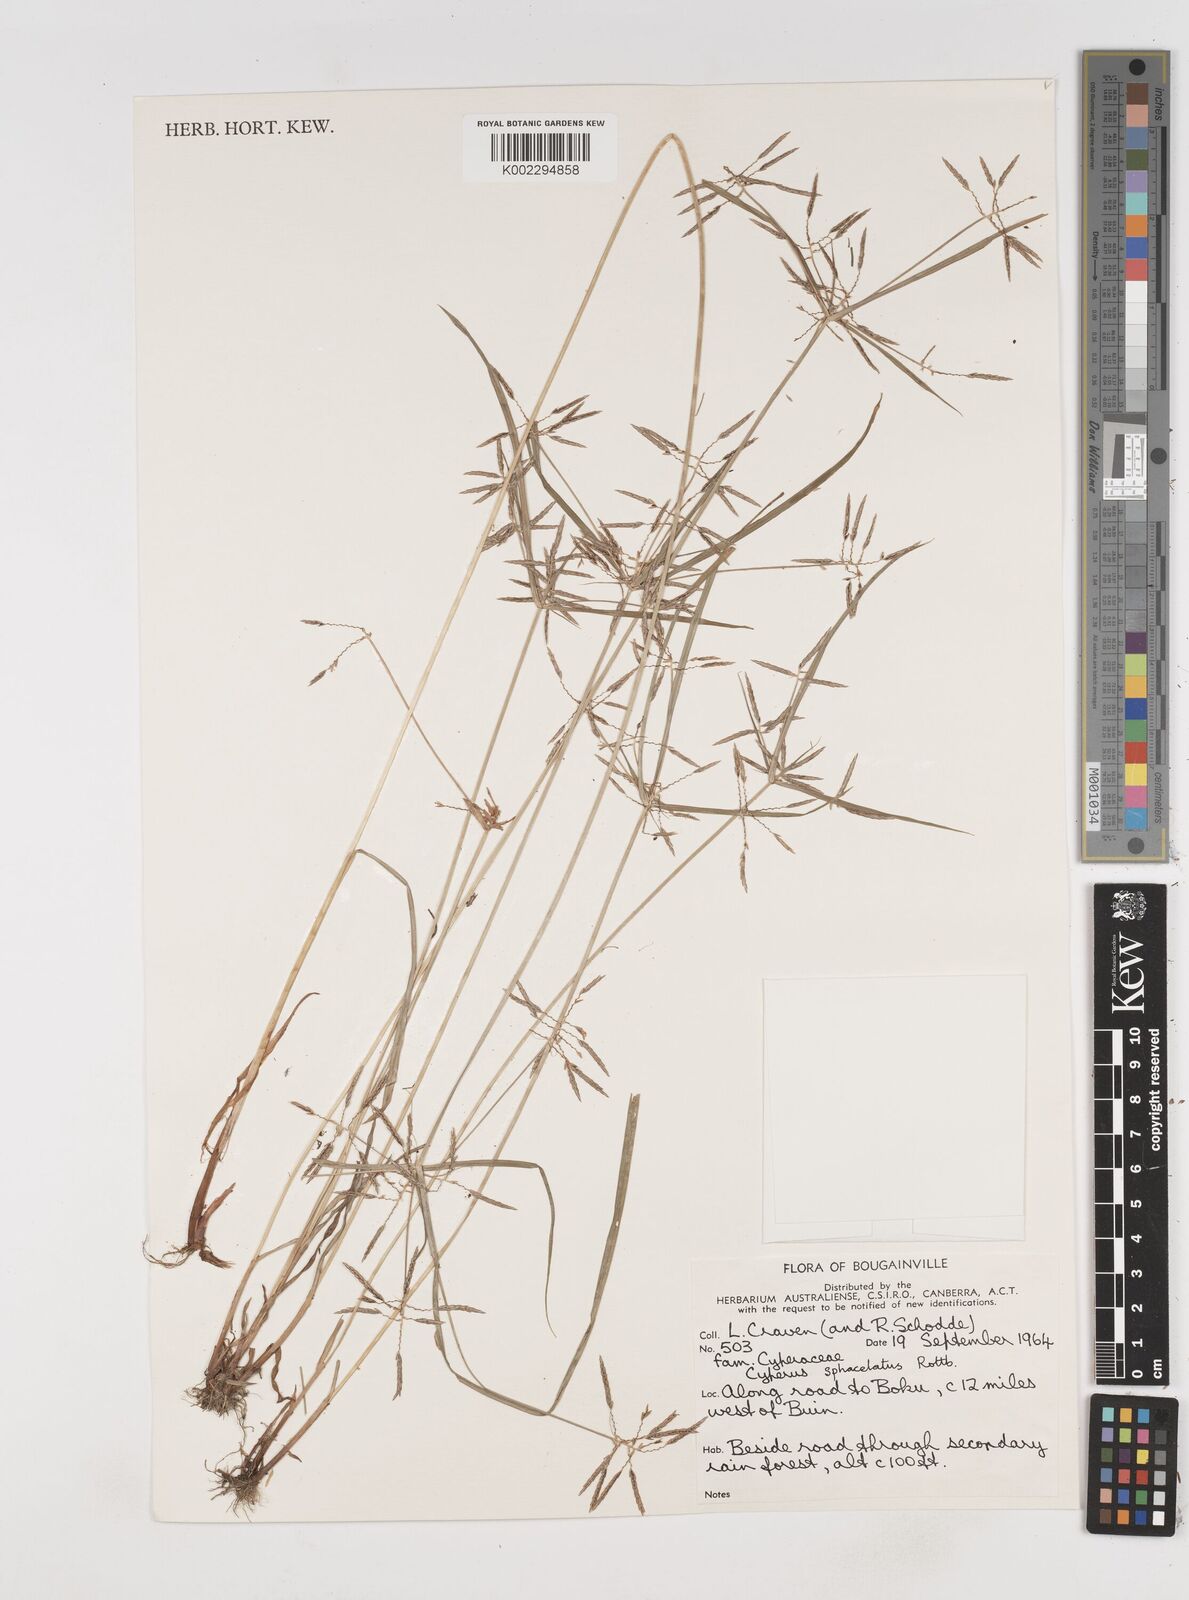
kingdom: Plantae
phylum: Tracheophyta
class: Liliopsida
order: Poales
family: Cyperaceae
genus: Cyperus
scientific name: Cyperus sphacelatus
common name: Roadside flatsedge
